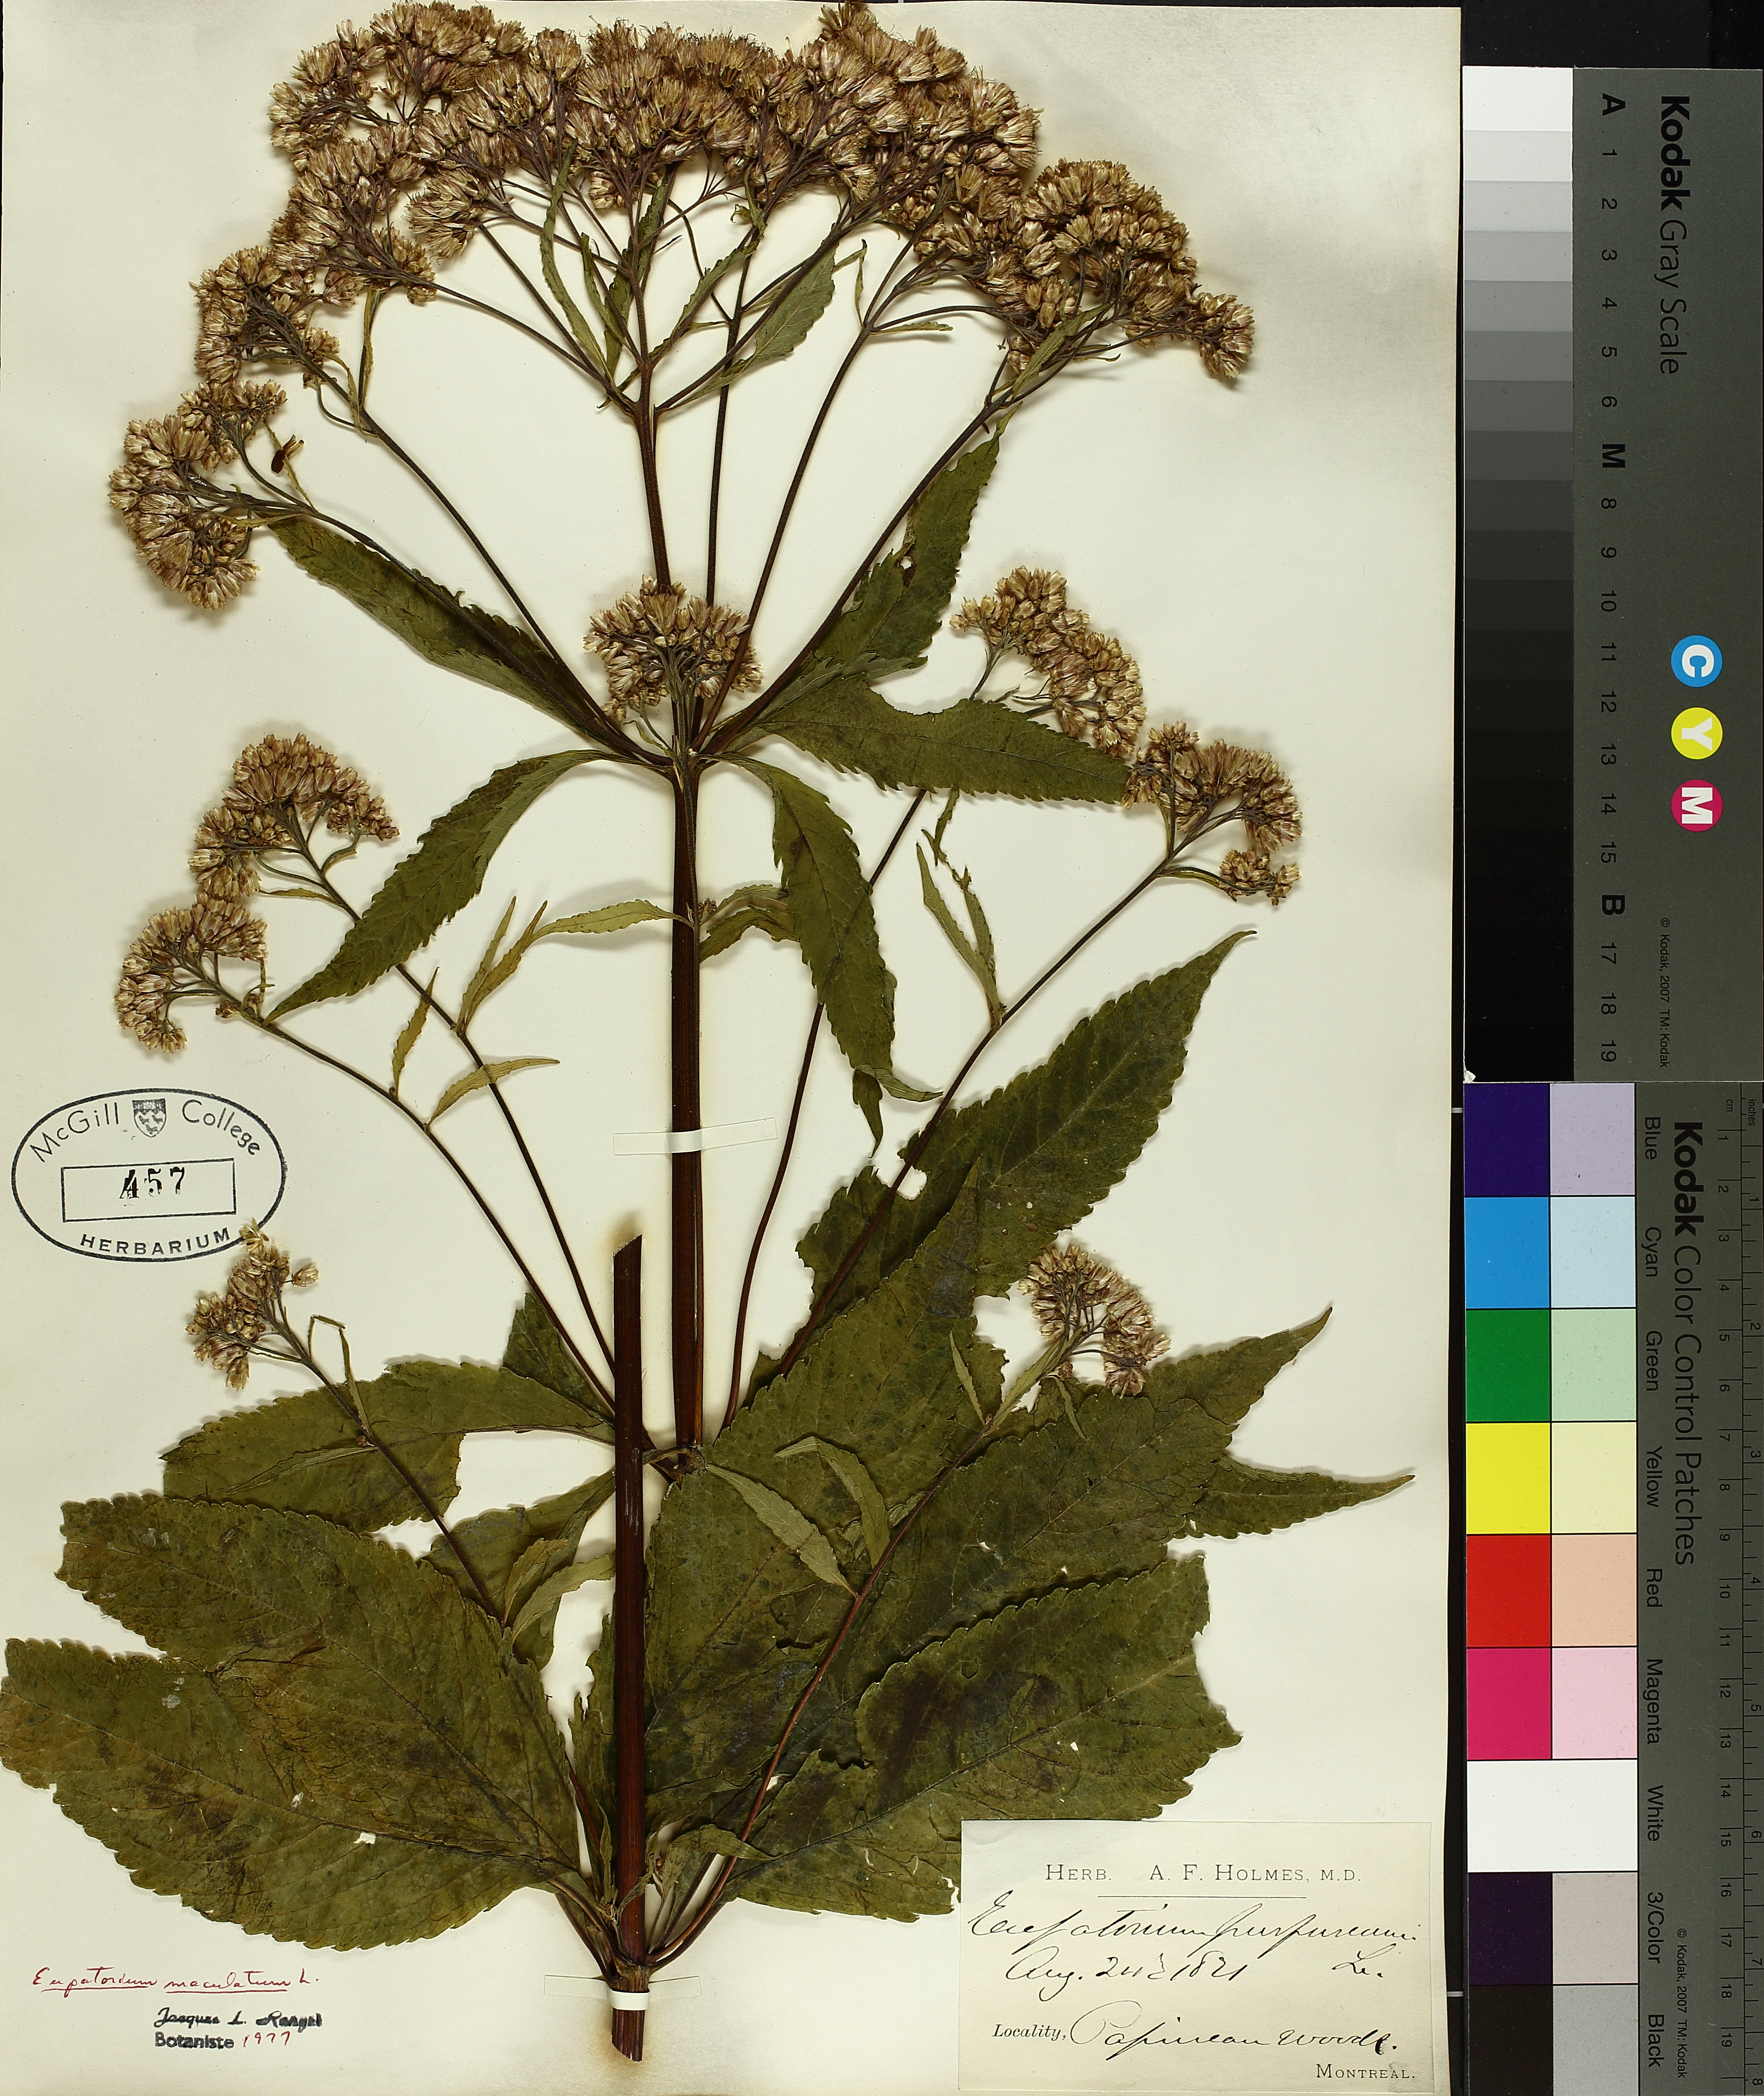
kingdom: Plantae
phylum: Tracheophyta
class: Magnoliopsida
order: Asterales
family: Asteraceae
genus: Eutrochium
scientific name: Eutrochium maculatum
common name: Spotted joe pye weed
